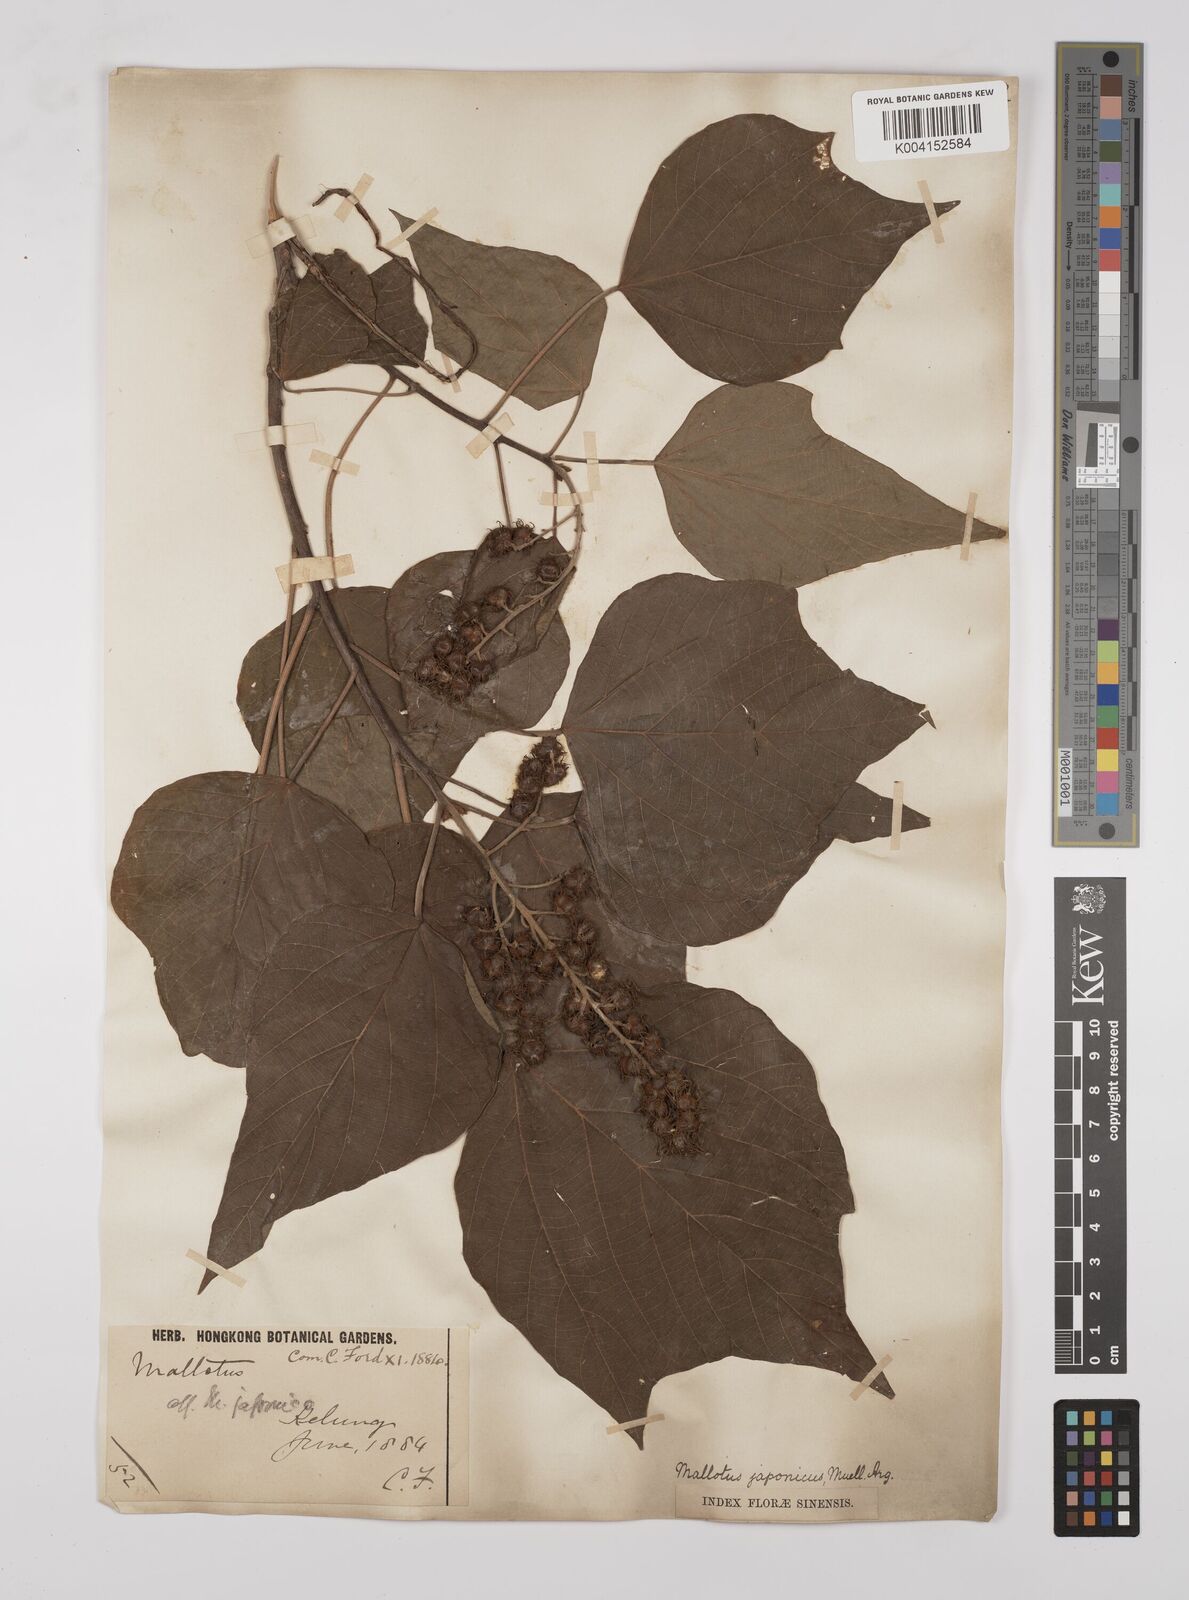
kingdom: Plantae
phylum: Tracheophyta
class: Magnoliopsida
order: Malpighiales
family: Euphorbiaceae
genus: Mallotus
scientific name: Mallotus japonicus
